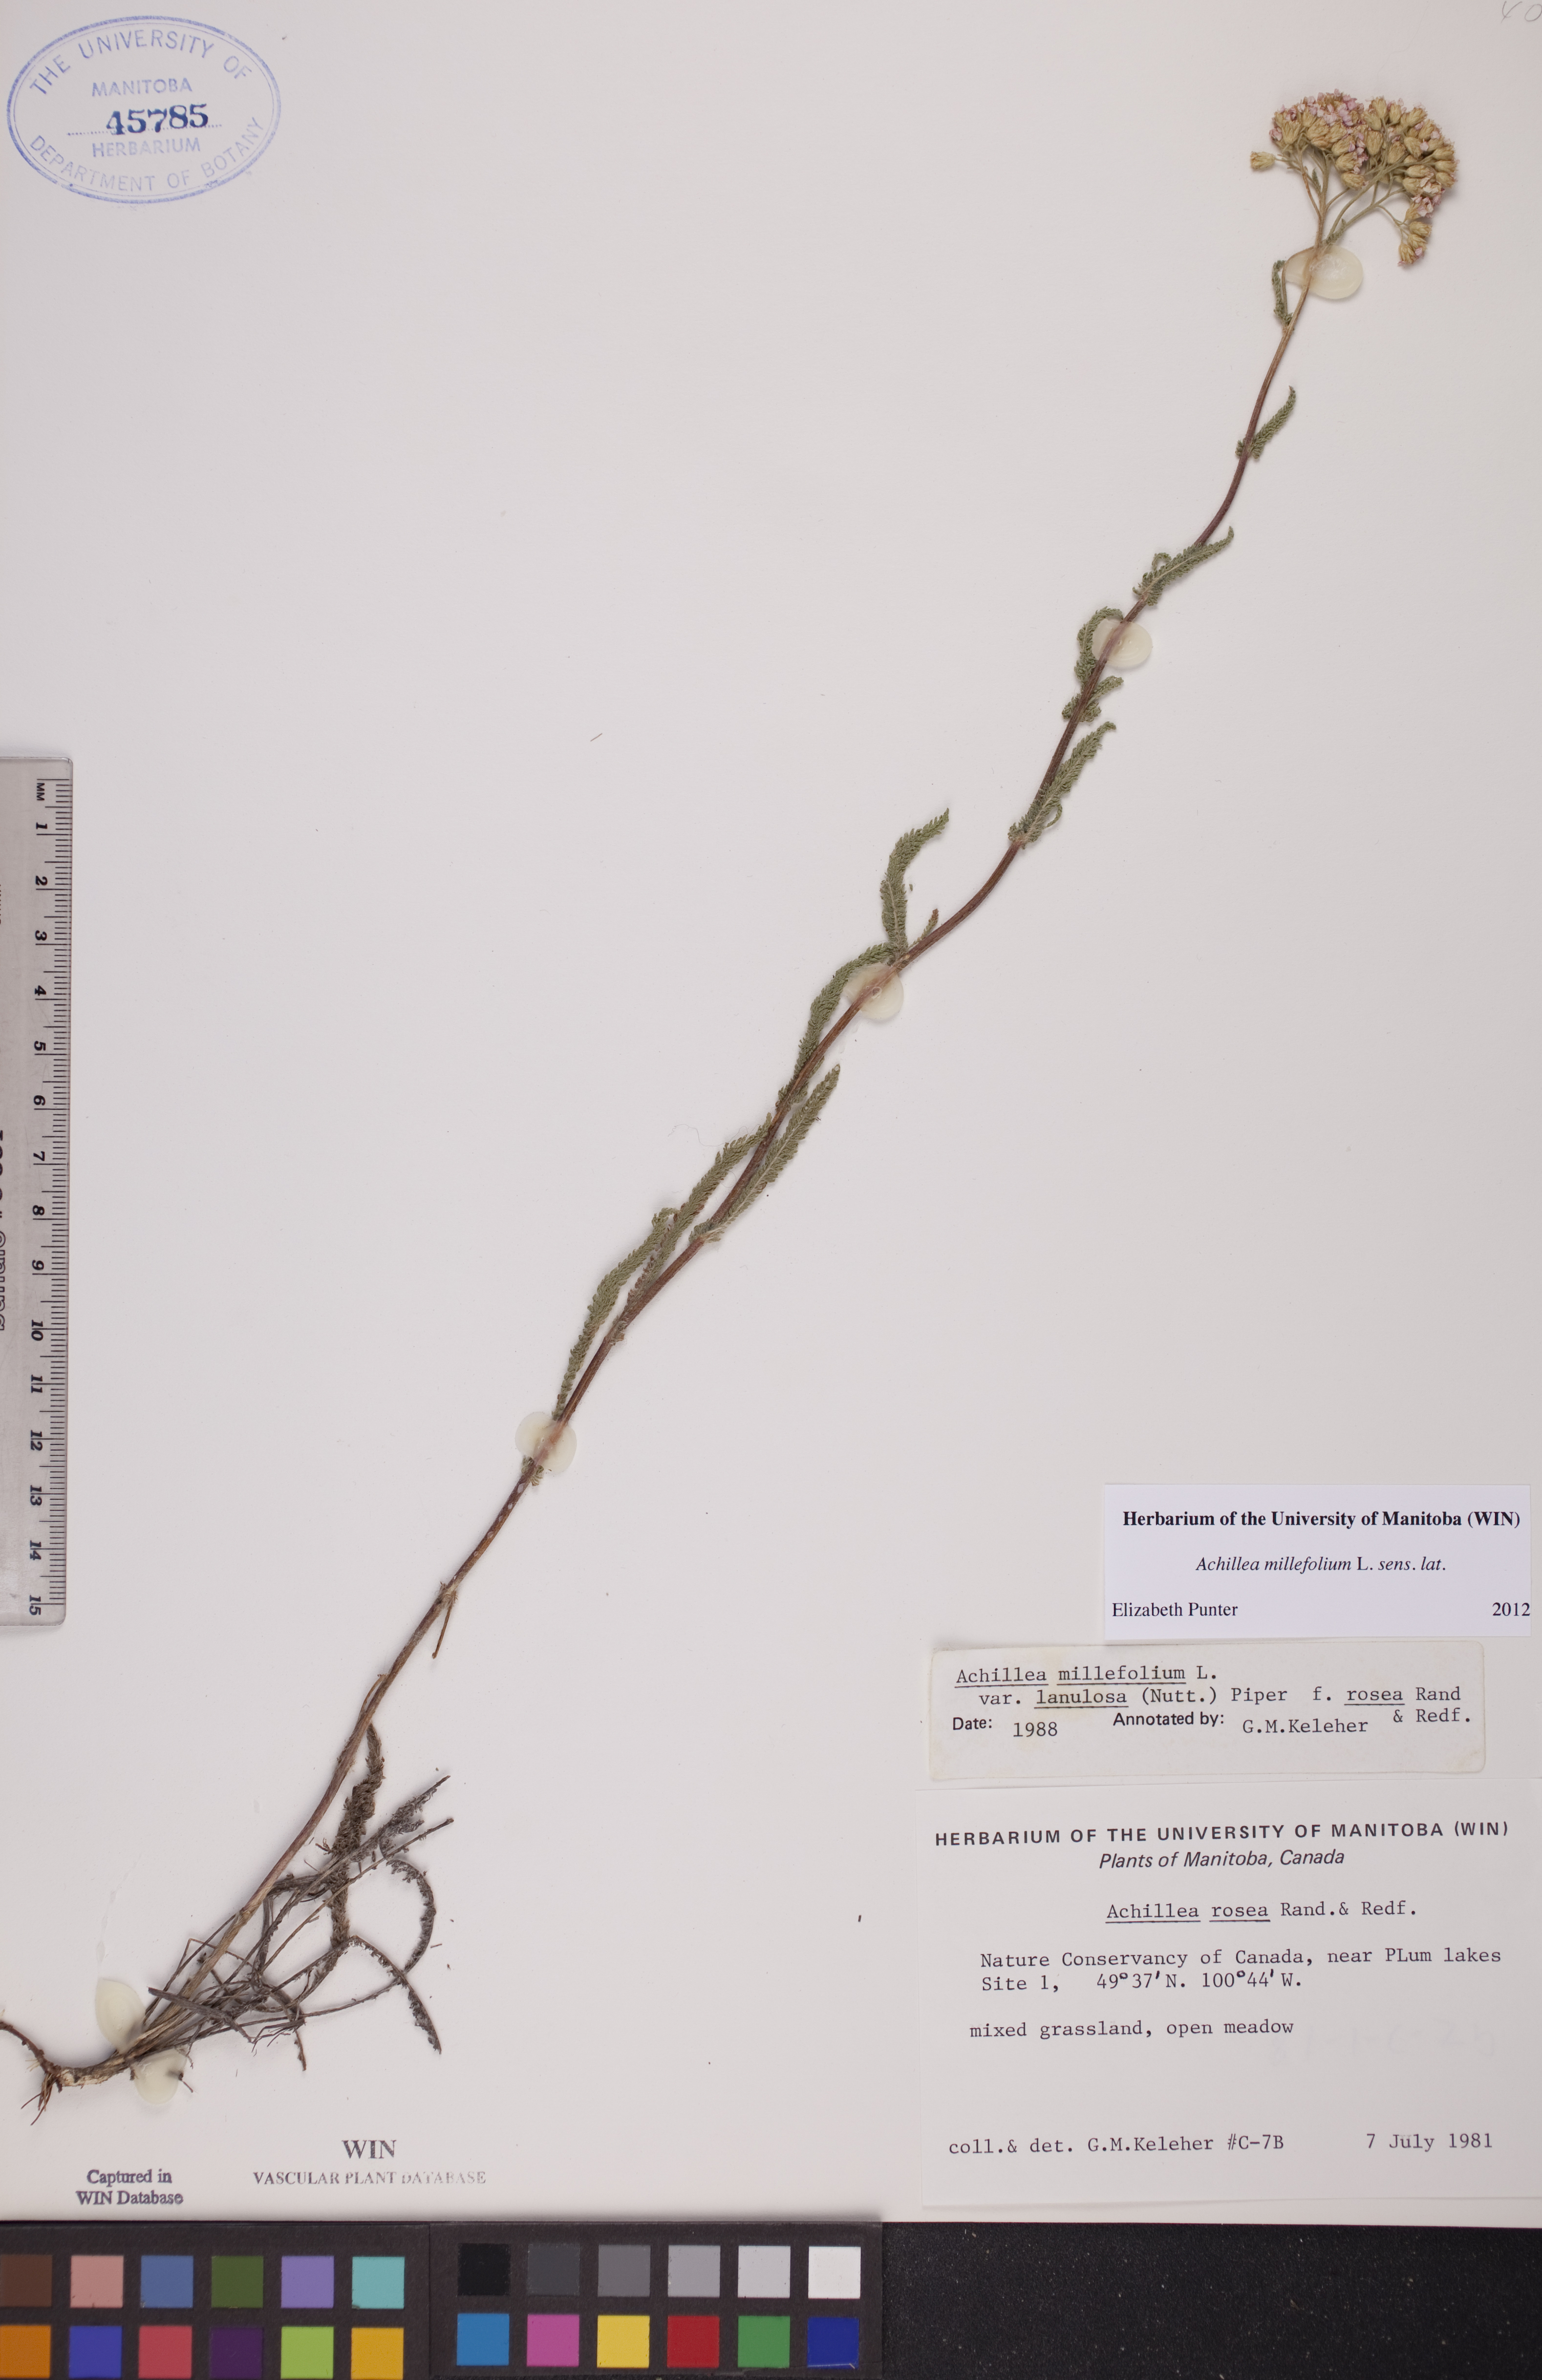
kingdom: Plantae
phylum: Tracheophyta
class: Magnoliopsida
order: Asterales
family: Asteraceae
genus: Achillea
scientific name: Achillea millefolium
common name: Yarrow
